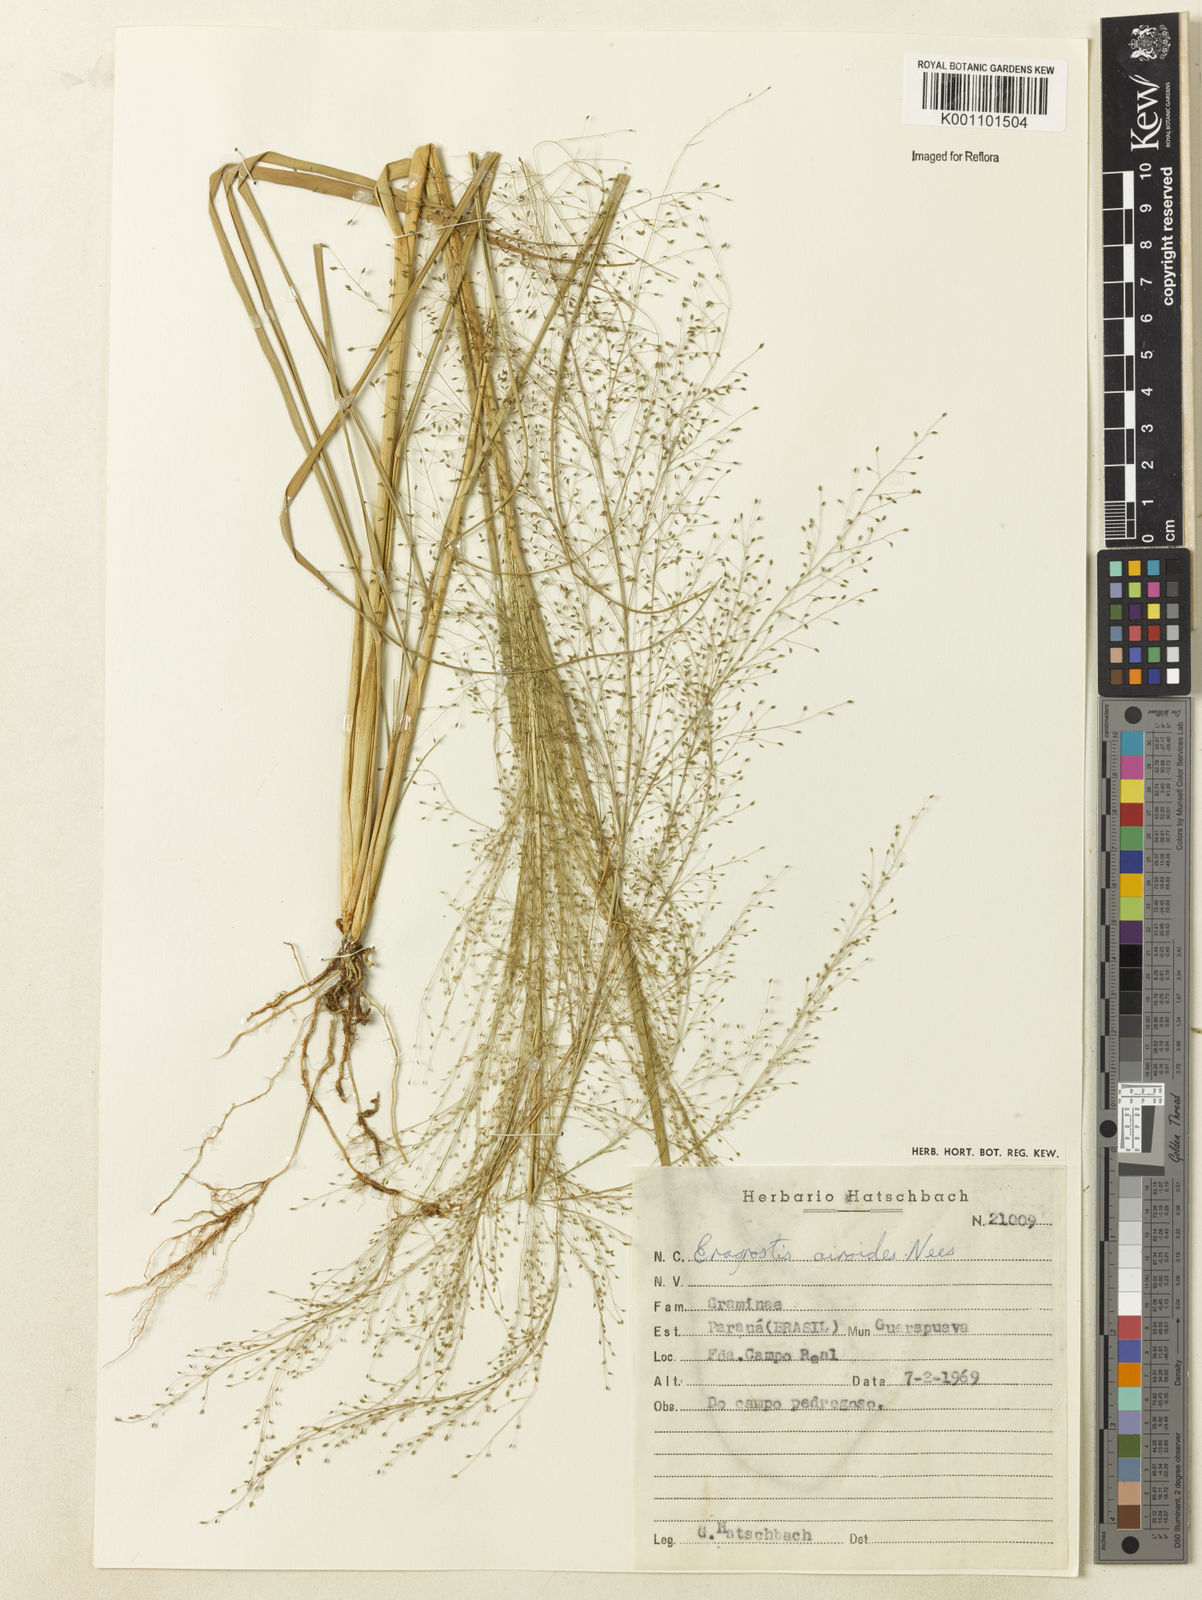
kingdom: Plantae
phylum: Tracheophyta
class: Liliopsida
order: Poales
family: Poaceae
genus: Eragrostis
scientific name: Eragrostis airoides
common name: Darnel lovegrass
